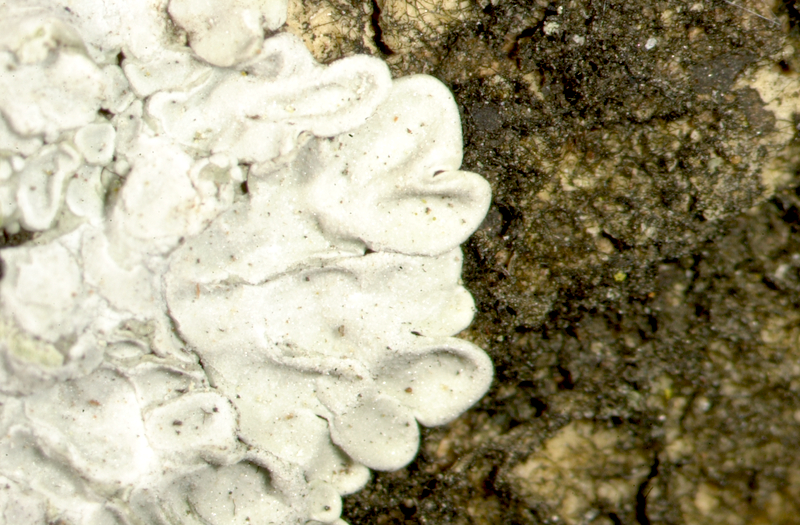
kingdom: Fungi
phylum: Ascomycota
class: Candelariomycetes
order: Candelariales
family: Candelariaceae
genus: Candelaria
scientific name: Candelaria concolor
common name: Candleflame lichen
